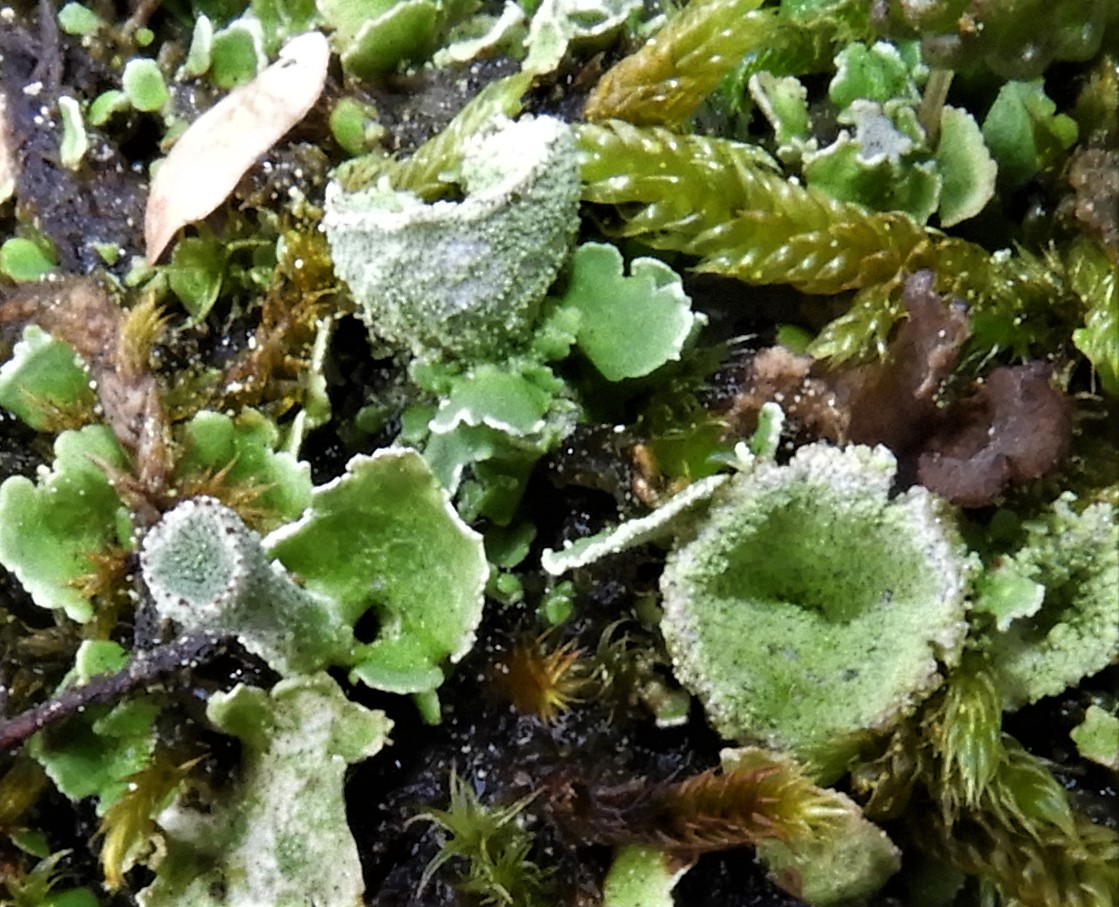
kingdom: Fungi
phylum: Ascomycota
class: Lecanoromycetes
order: Lecanorales
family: Cladoniaceae
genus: Cladonia
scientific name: Cladonia humilis
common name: lav bægerlav
